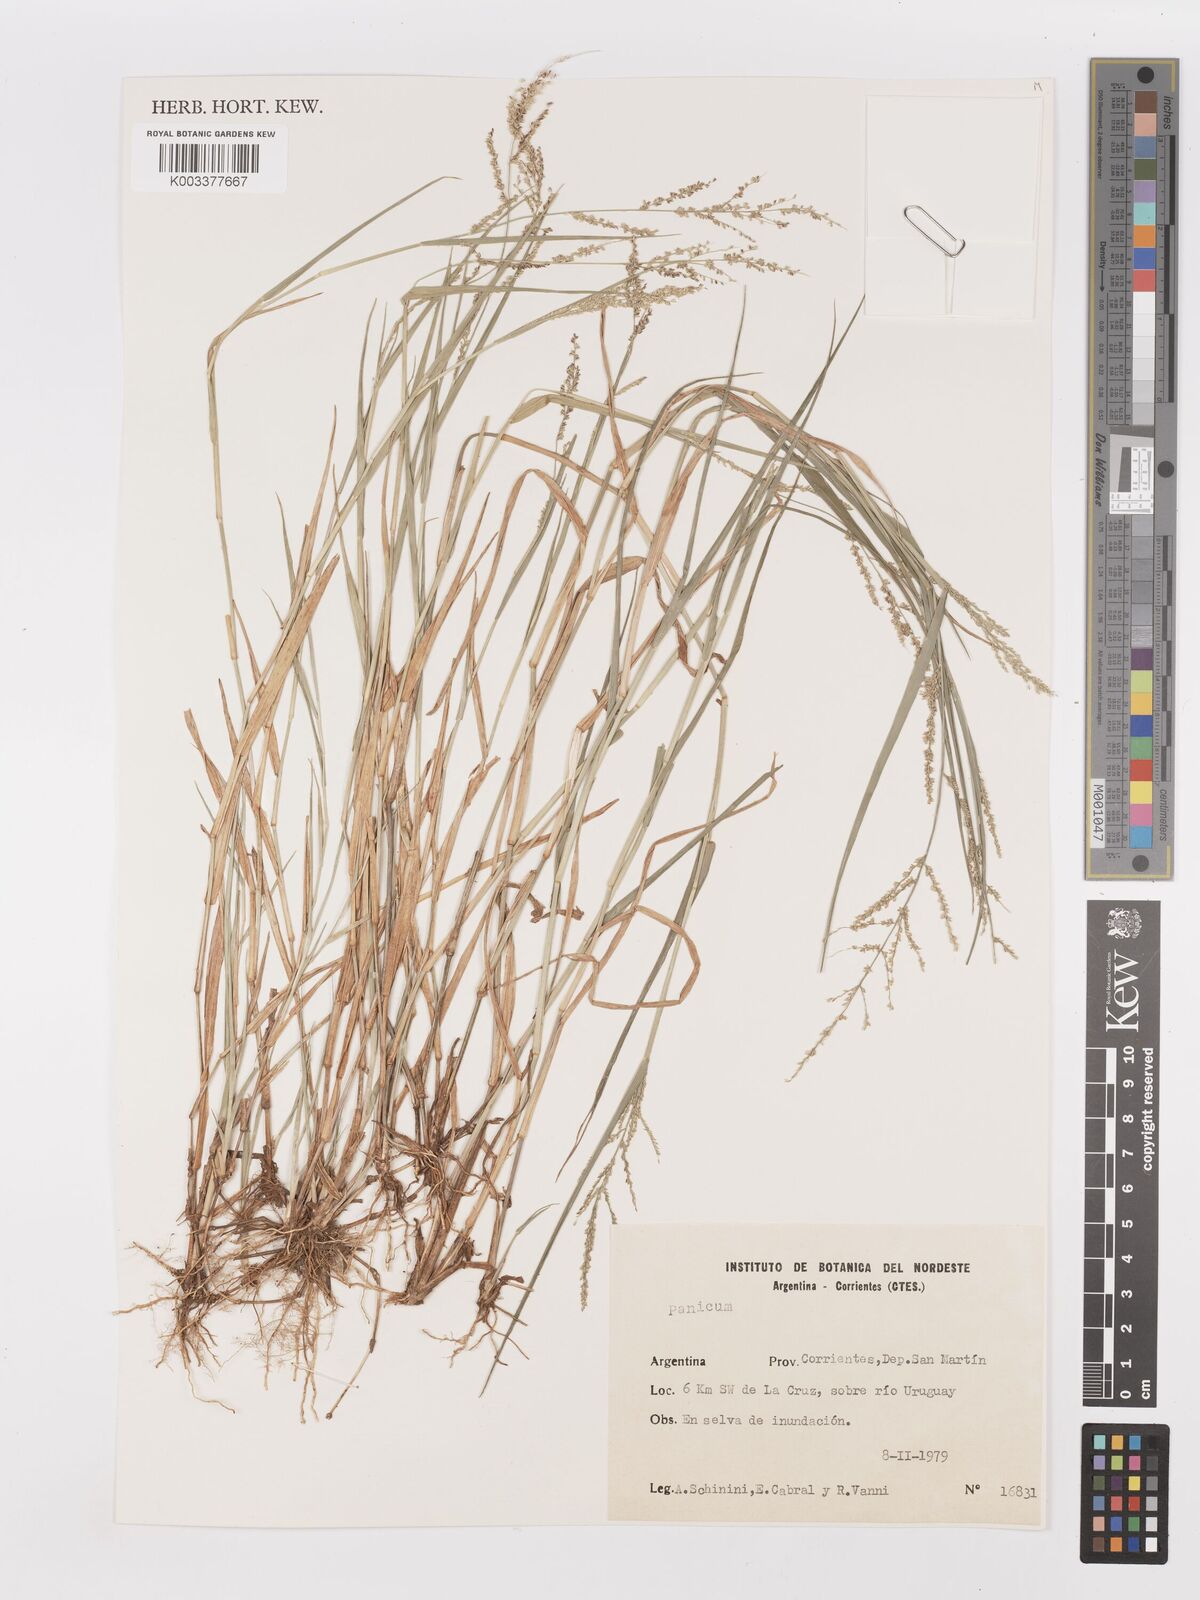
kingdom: Plantae
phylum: Tracheophyta
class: Liliopsida
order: Poales
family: Poaceae
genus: Steinchisma
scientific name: Steinchisma laxum
